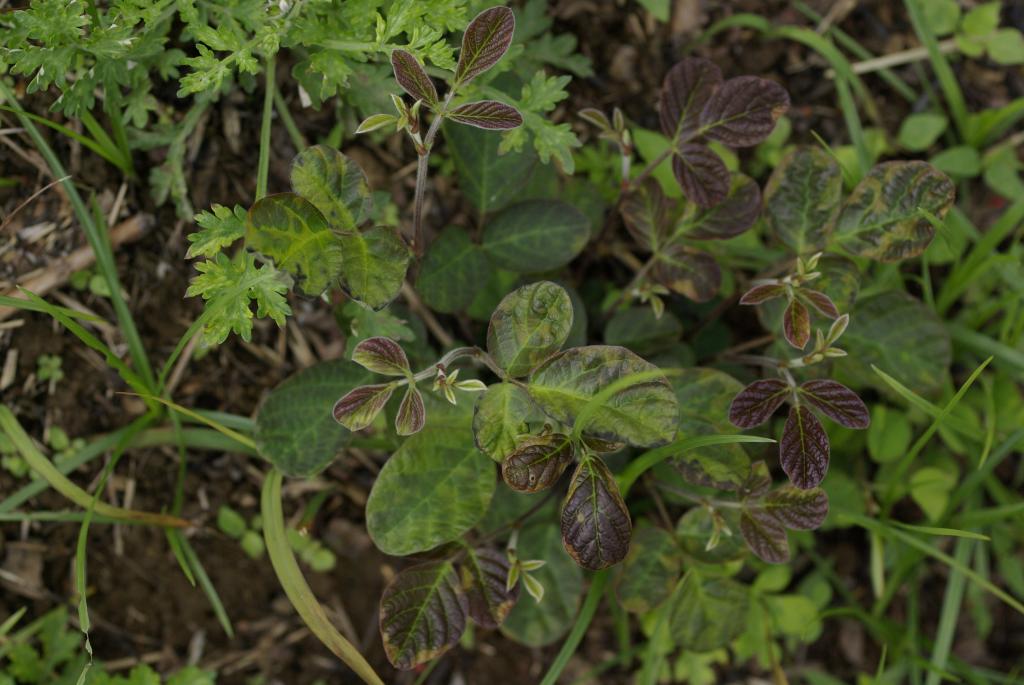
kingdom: Plantae
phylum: Tracheophyta
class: Magnoliopsida
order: Fabales
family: Fabaceae
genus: Phyllodium
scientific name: Phyllodium pulchellum
